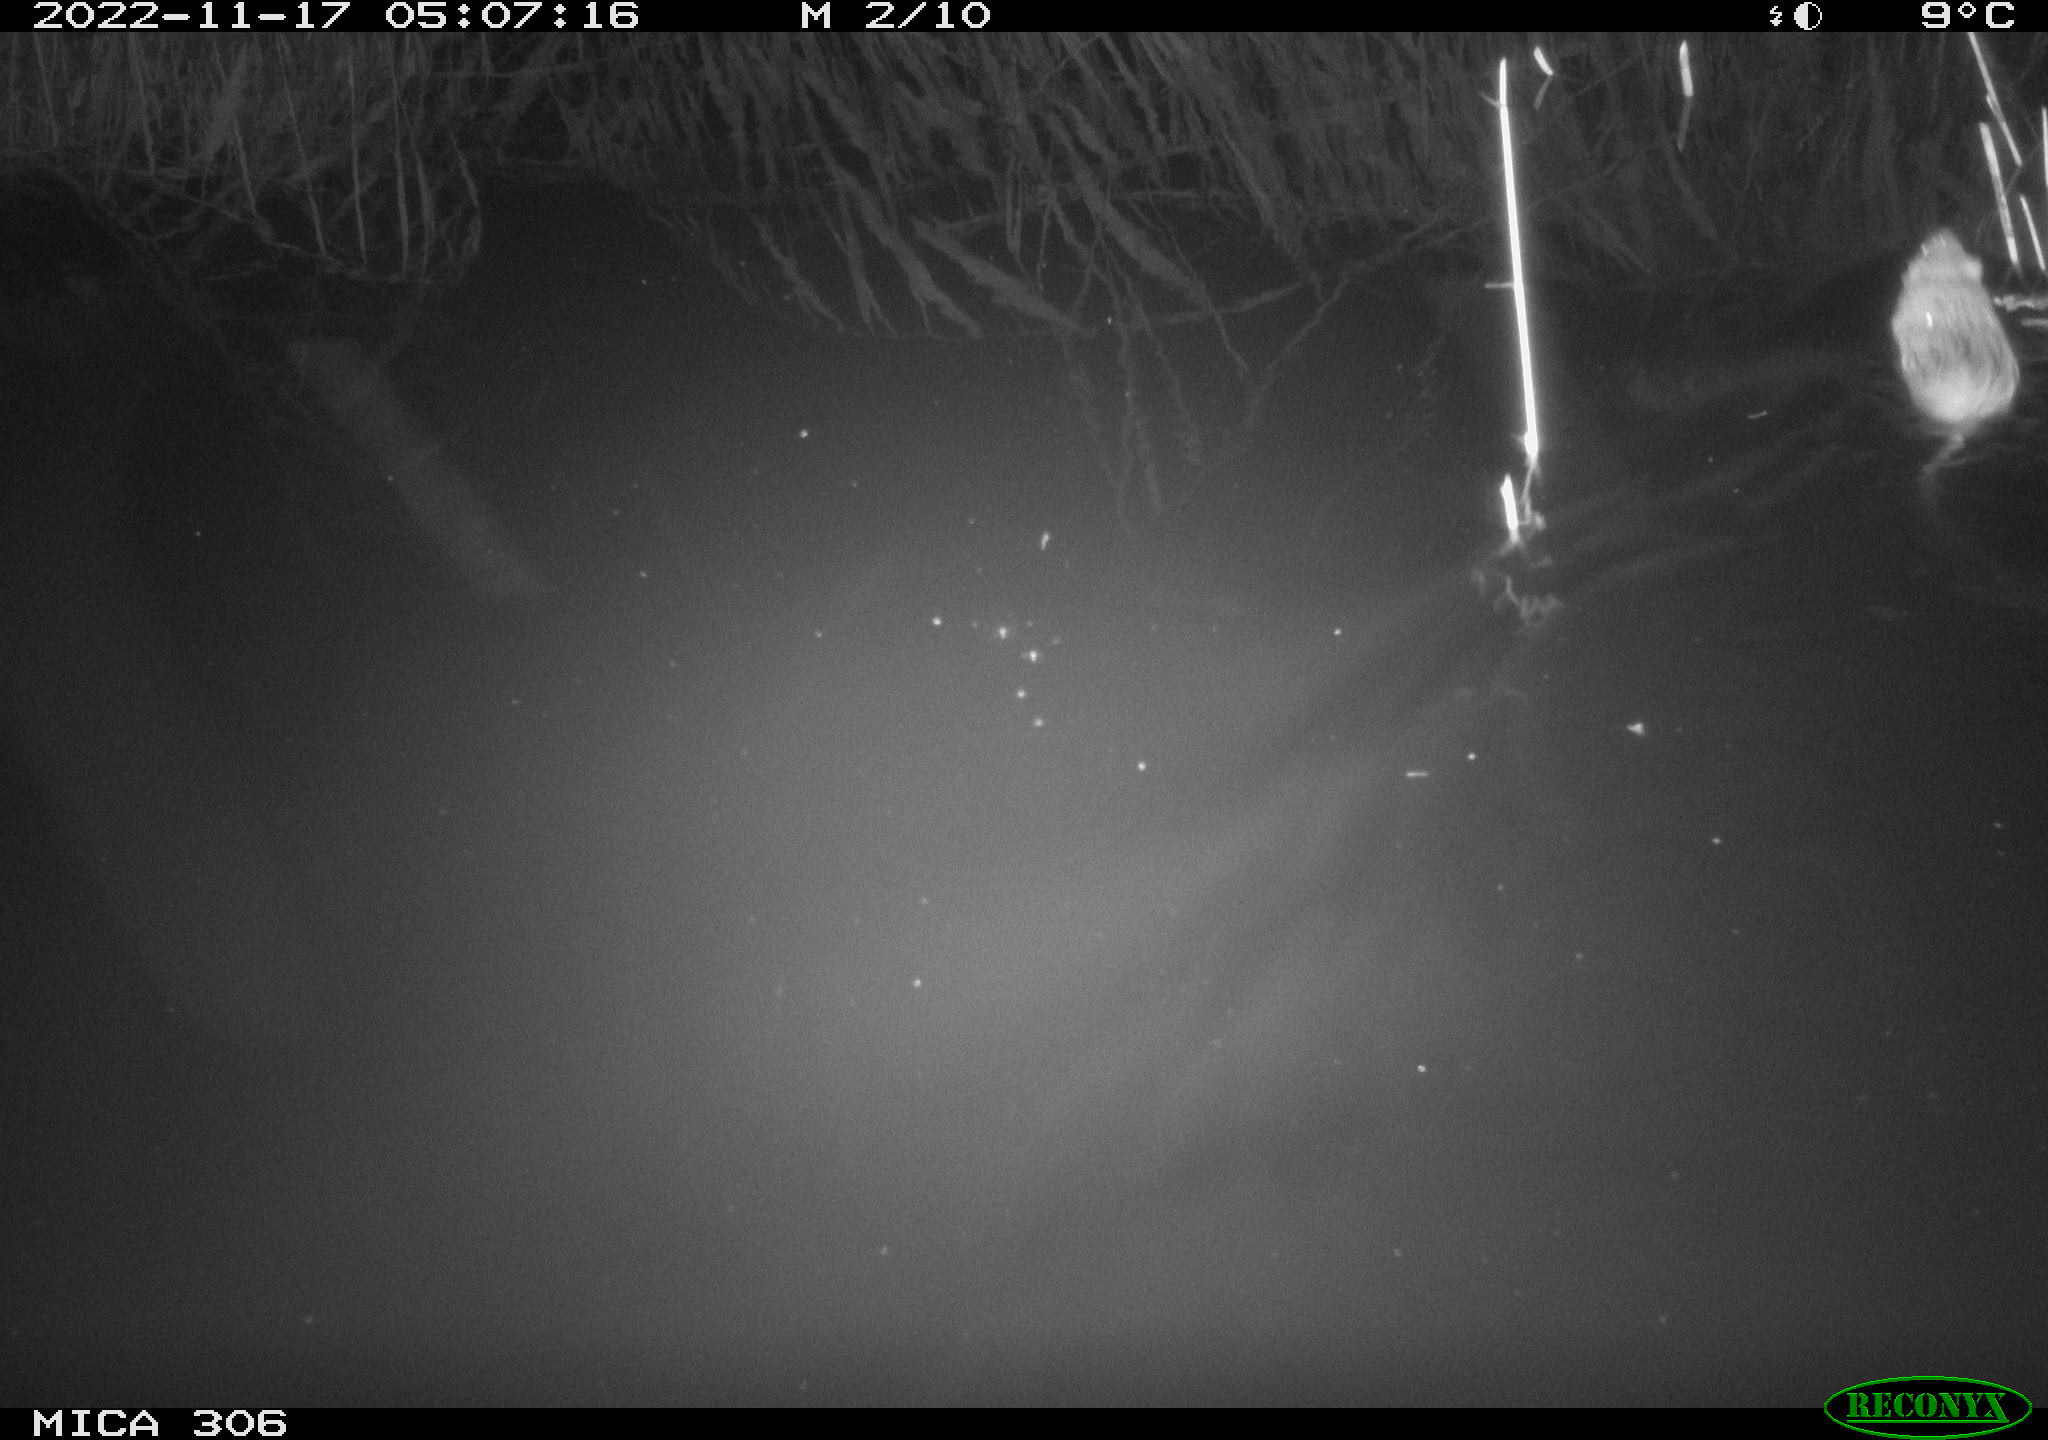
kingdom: Animalia
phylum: Chordata
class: Mammalia
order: Rodentia
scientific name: Rodentia
